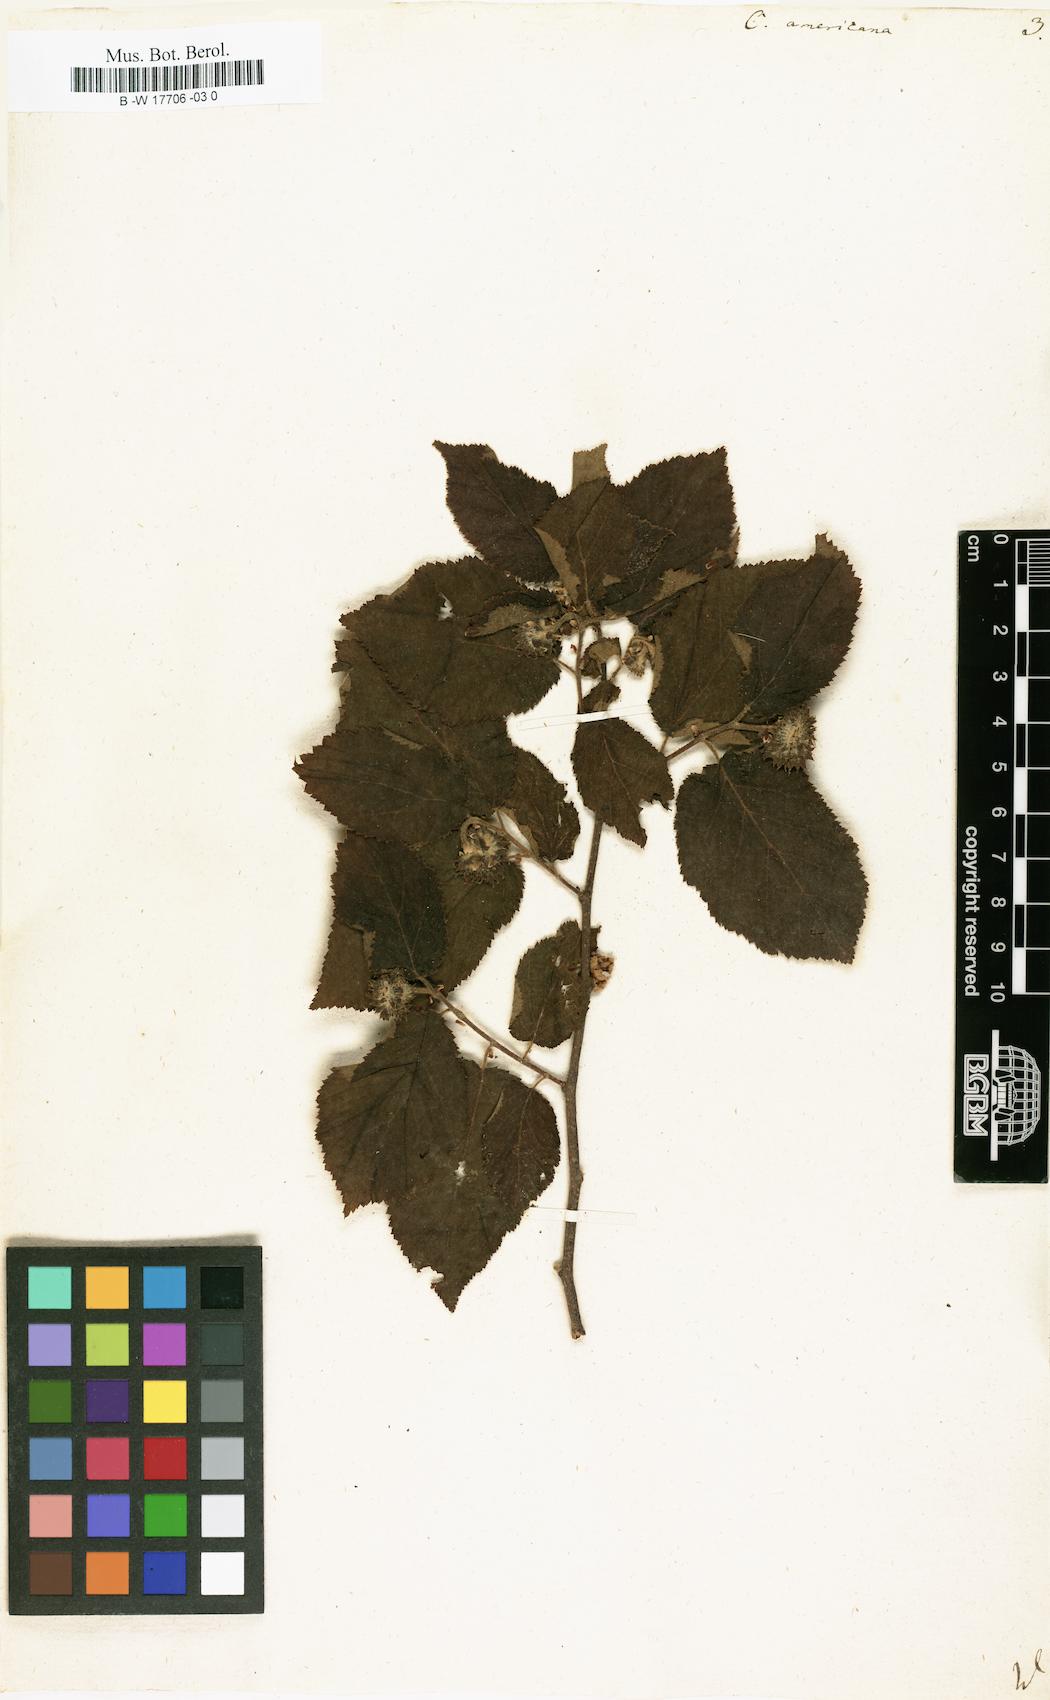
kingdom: Plantae
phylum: Tracheophyta
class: Magnoliopsida
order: Fagales
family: Betulaceae
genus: Corylus
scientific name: Corylus americana
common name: American hazel
